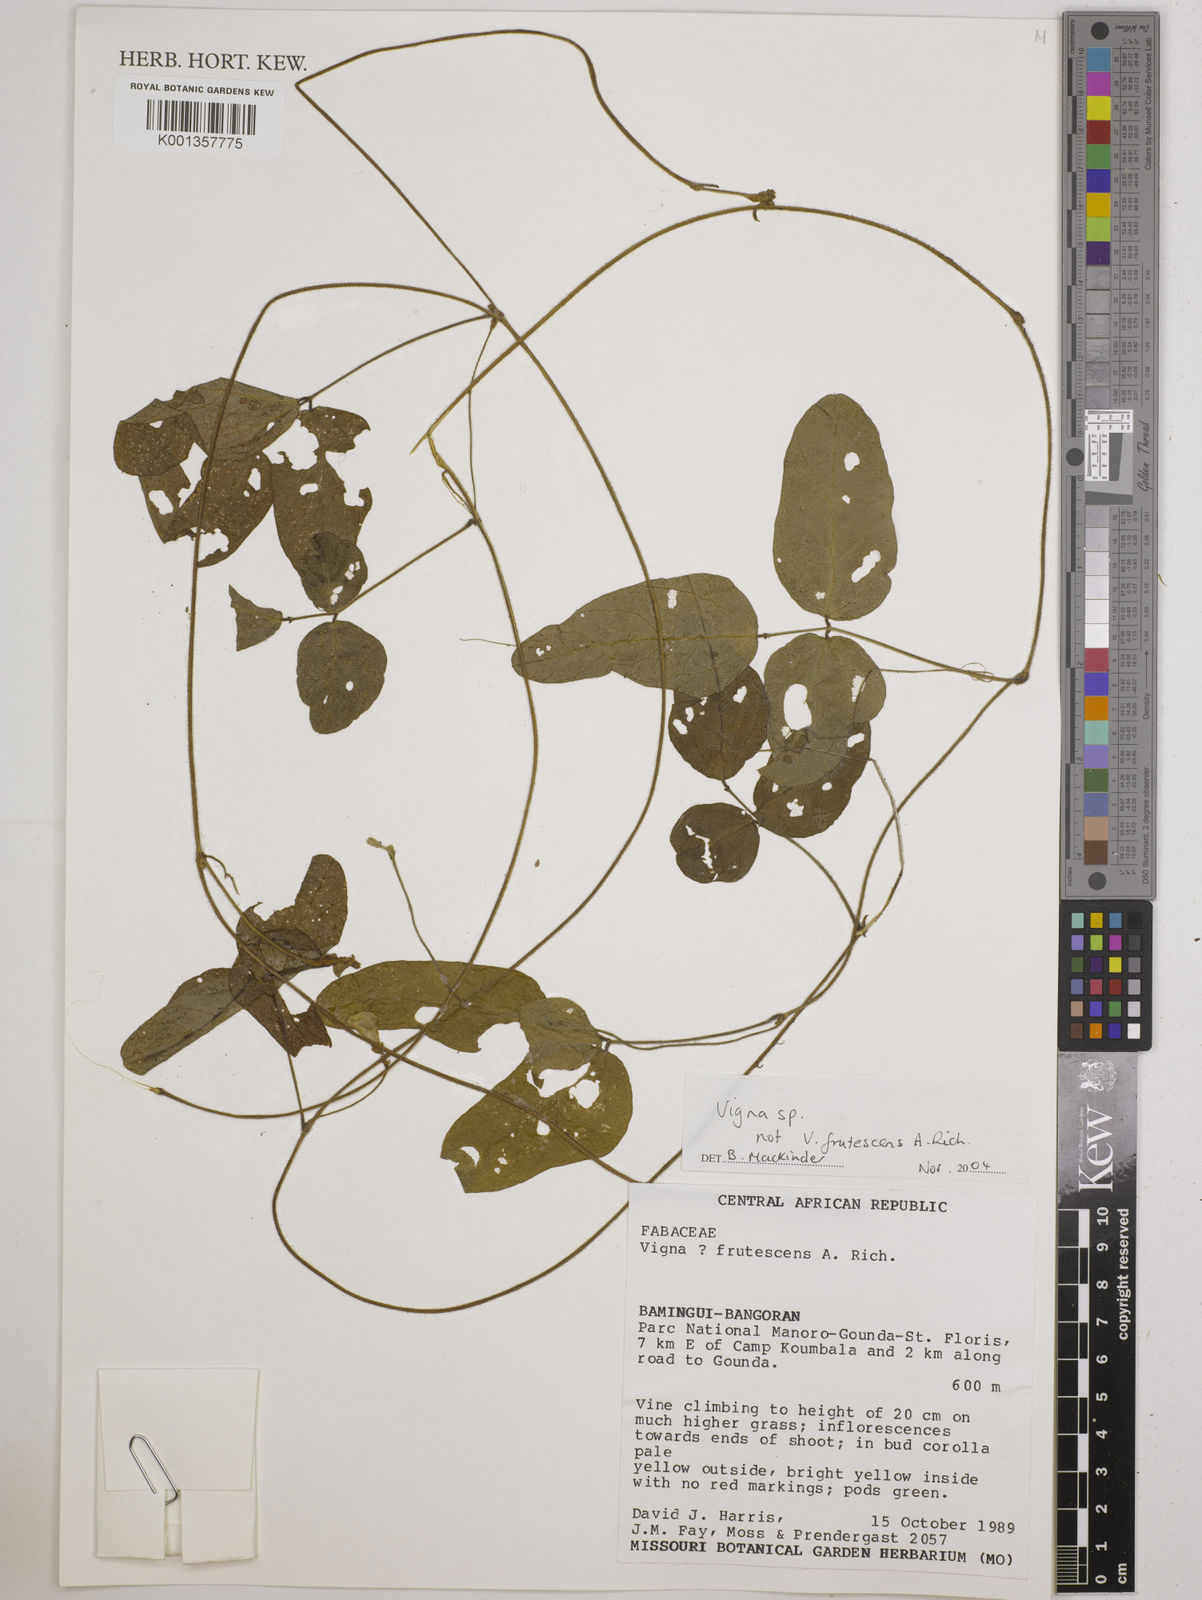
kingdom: Plantae
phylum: Tracheophyta
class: Magnoliopsida
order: Fabales
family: Fabaceae
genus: Vigna
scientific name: Vigna
